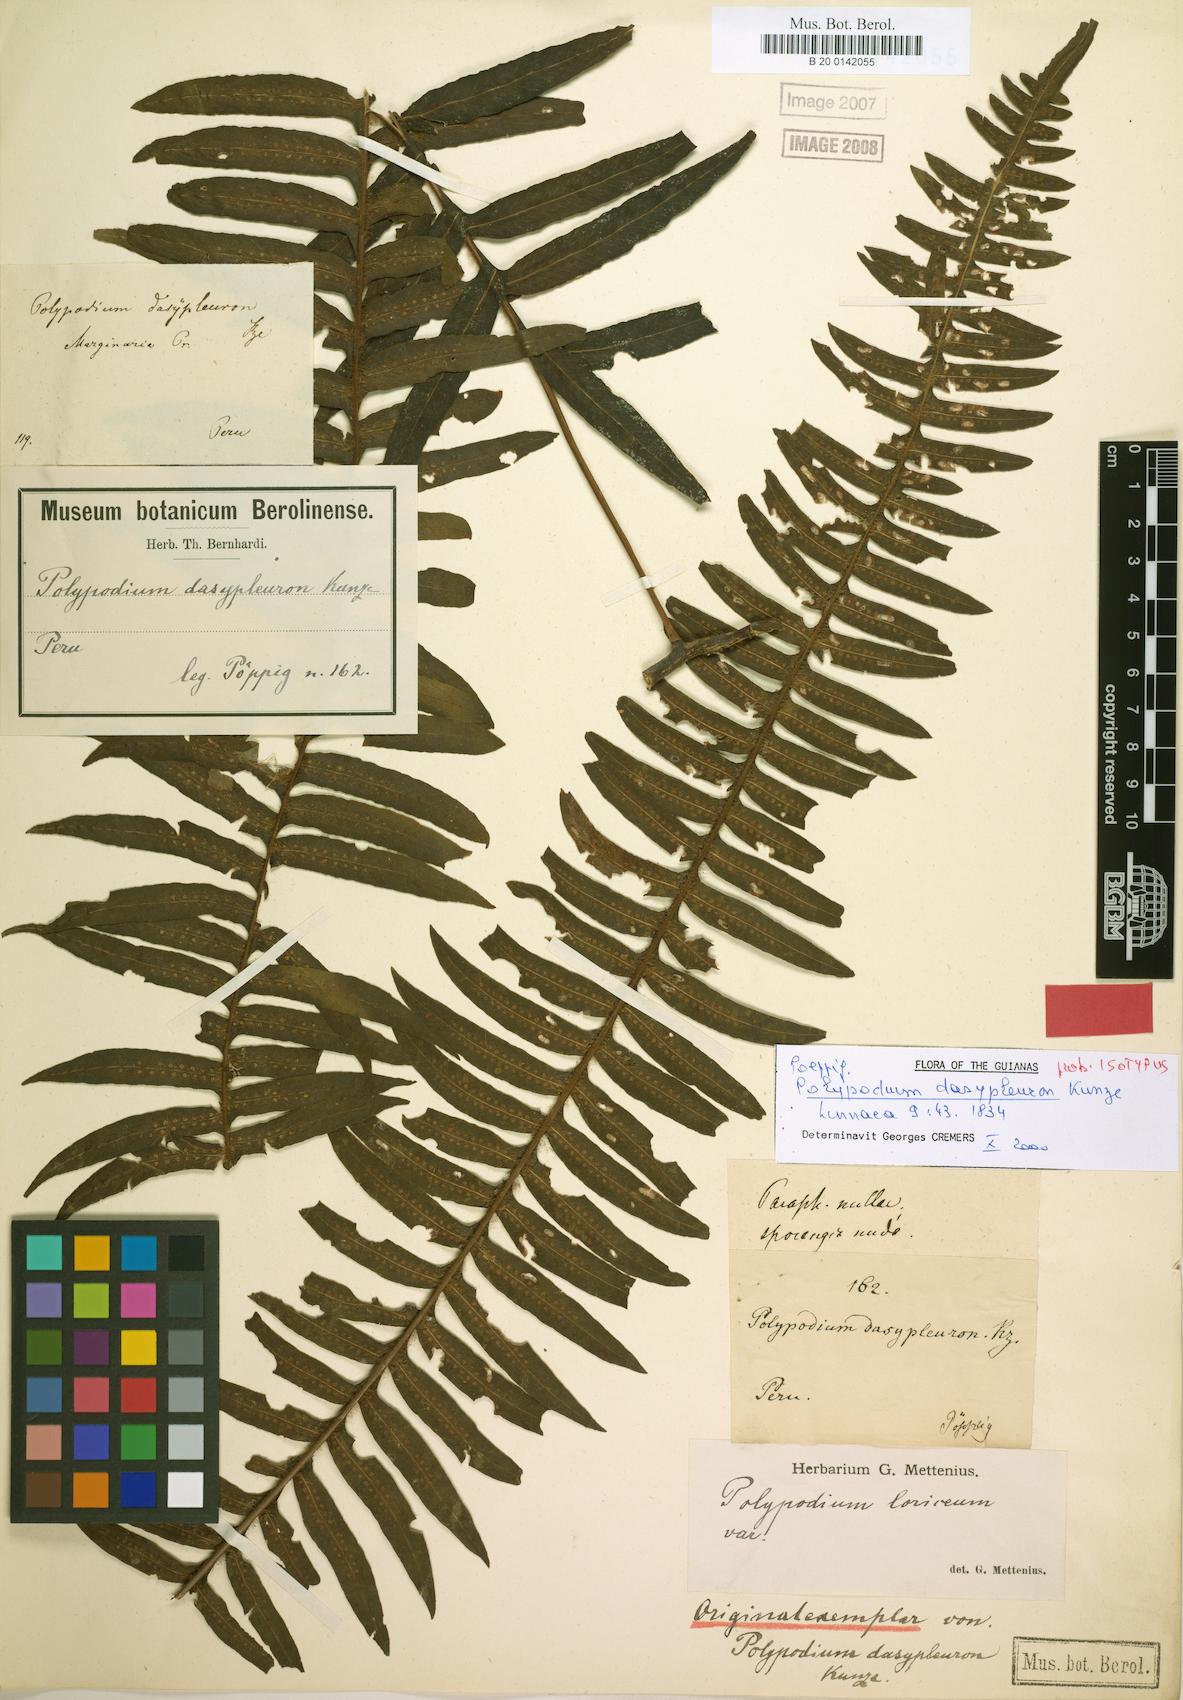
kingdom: Plantae
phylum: Tracheophyta
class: Polypodiopsida
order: Polypodiales
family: Polypodiaceae
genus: Serpocaulon
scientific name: Serpocaulon dasypleuron
